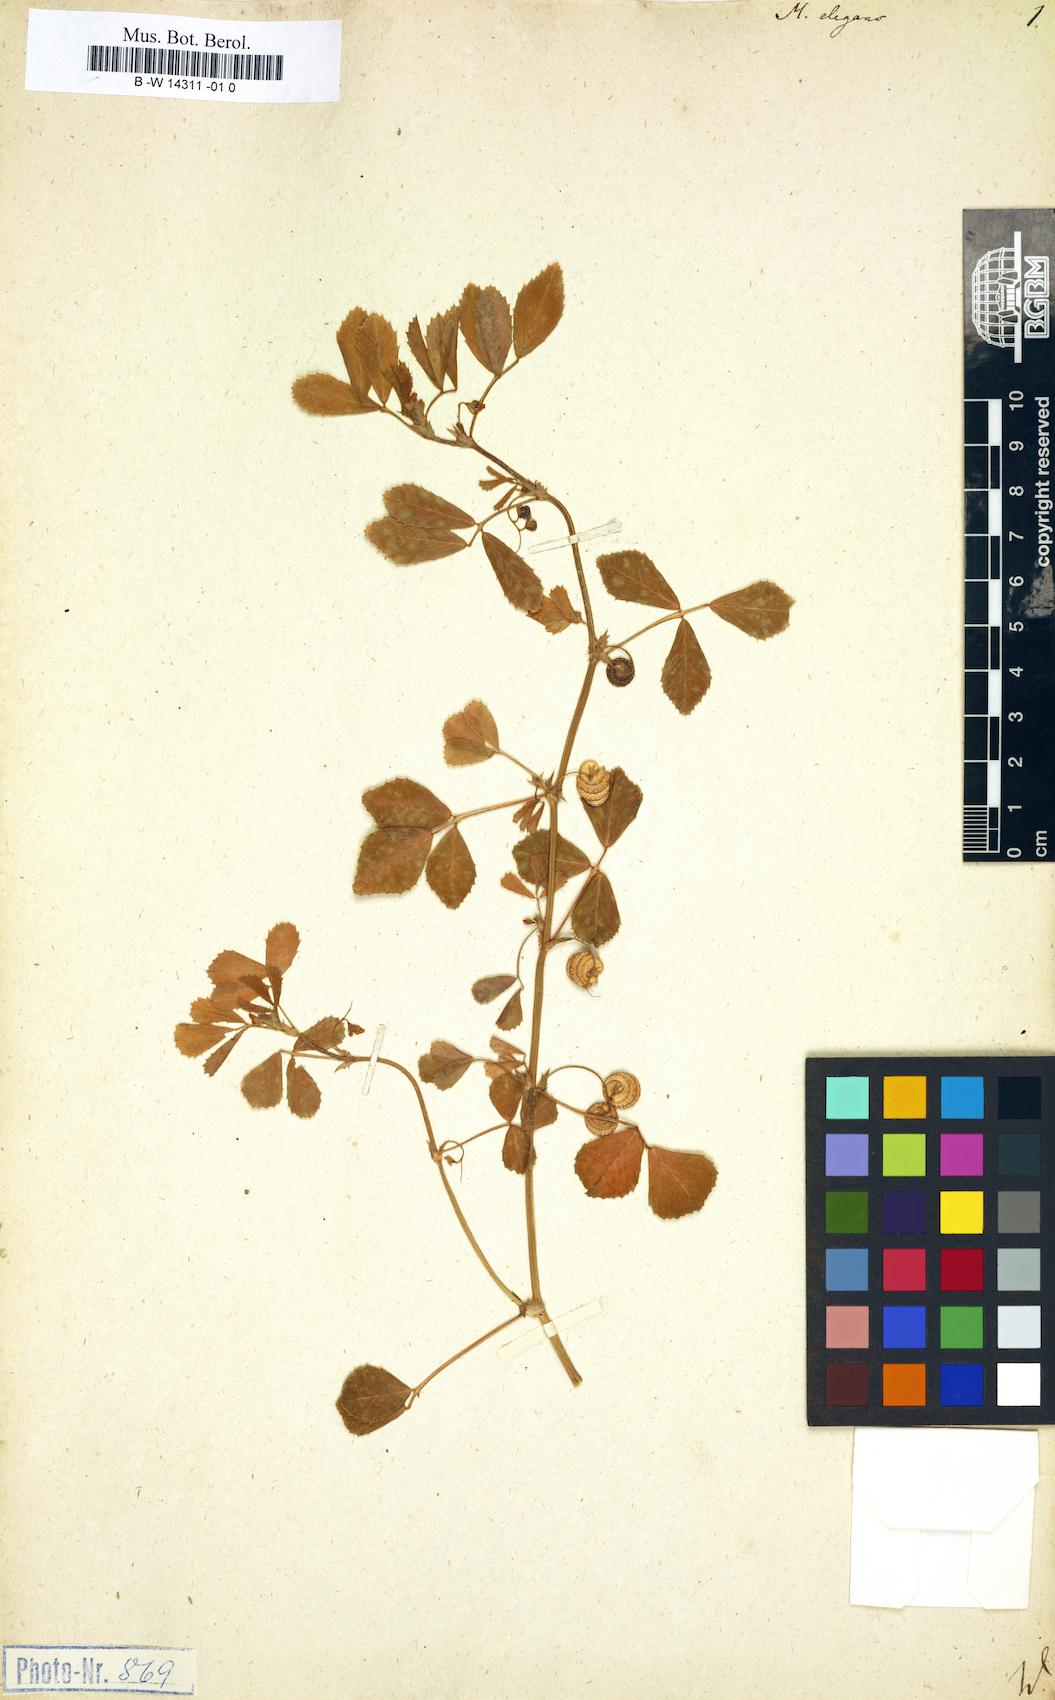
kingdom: Plantae
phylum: Tracheophyta
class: Magnoliopsida
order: Fabales
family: Fabaceae
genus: Medicago
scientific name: Medicago rugosa
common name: Gama medic
